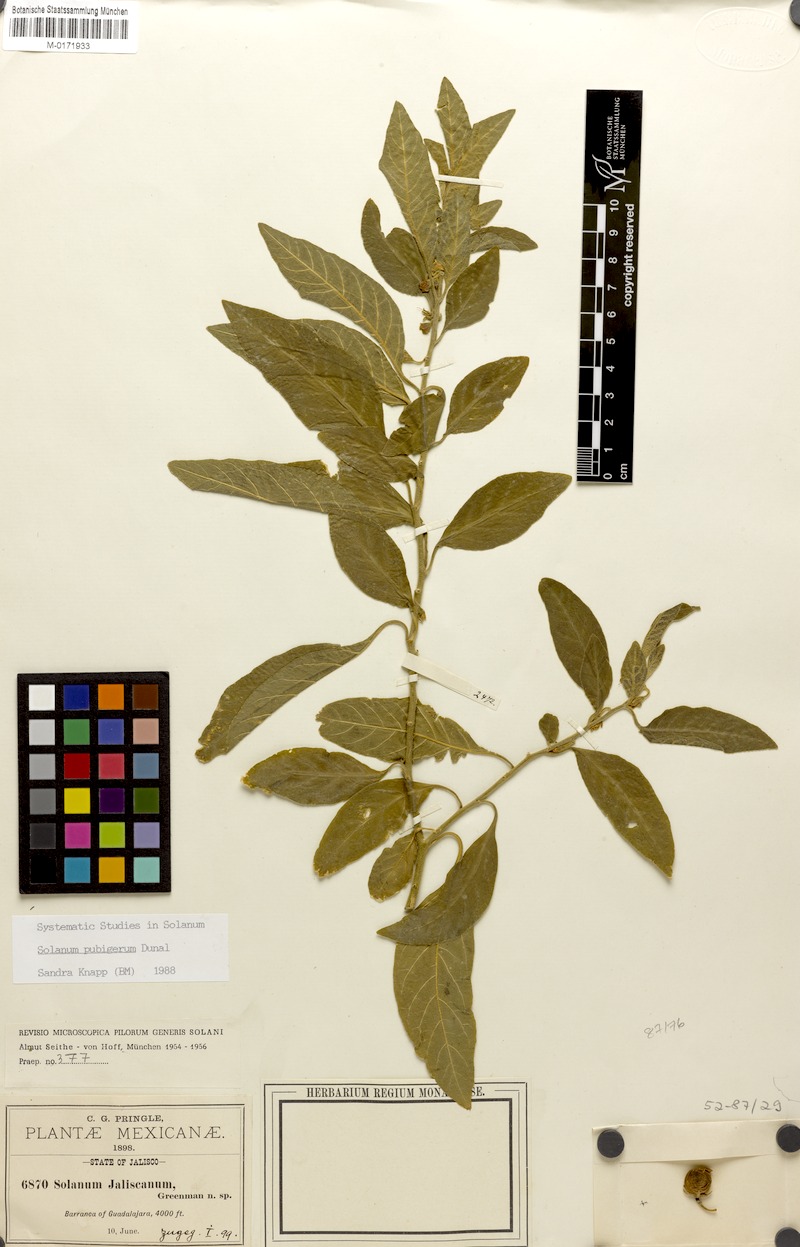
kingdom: Plantae
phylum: Tracheophyta
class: Magnoliopsida
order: Solanales
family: Solanaceae
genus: Solanum
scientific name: Solanum pubigerum
